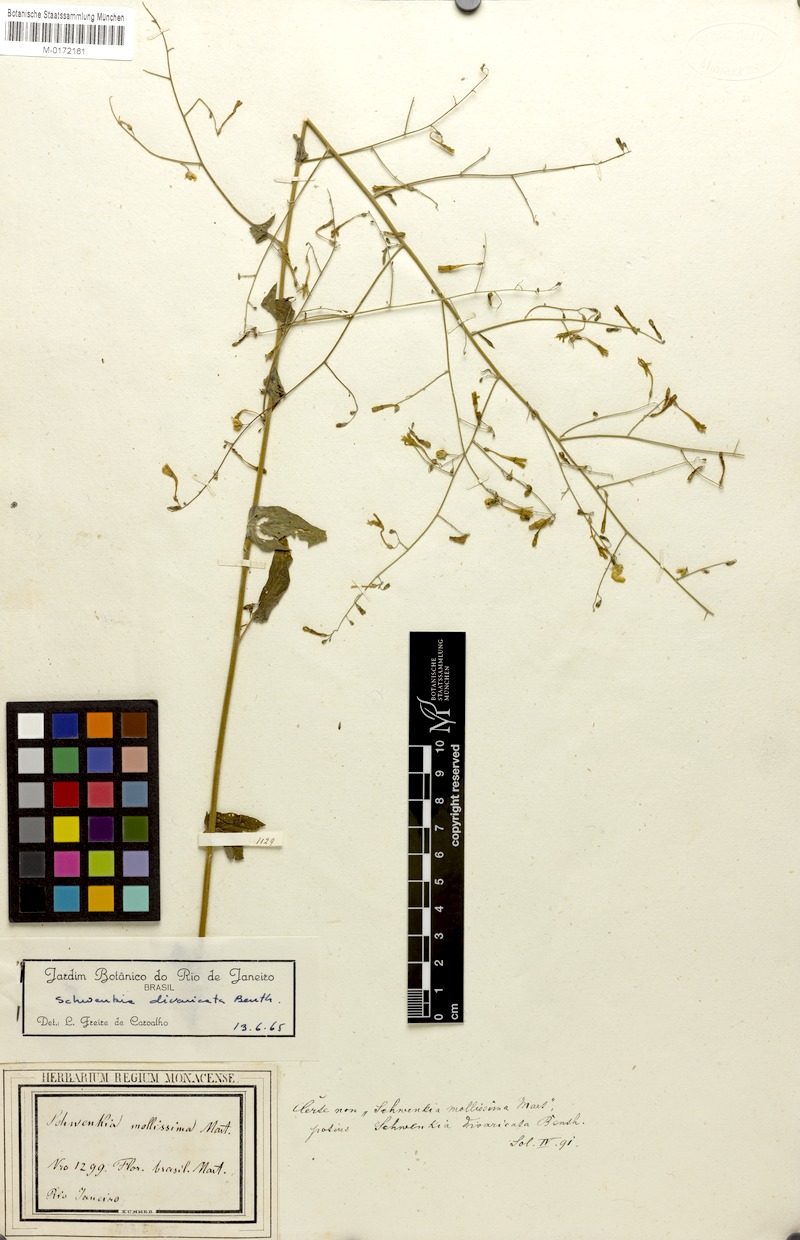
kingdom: Plantae
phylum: Tracheophyta
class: Magnoliopsida
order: Solanales
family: Solanaceae
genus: Schwenckia
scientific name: Schwenckia paniculata
